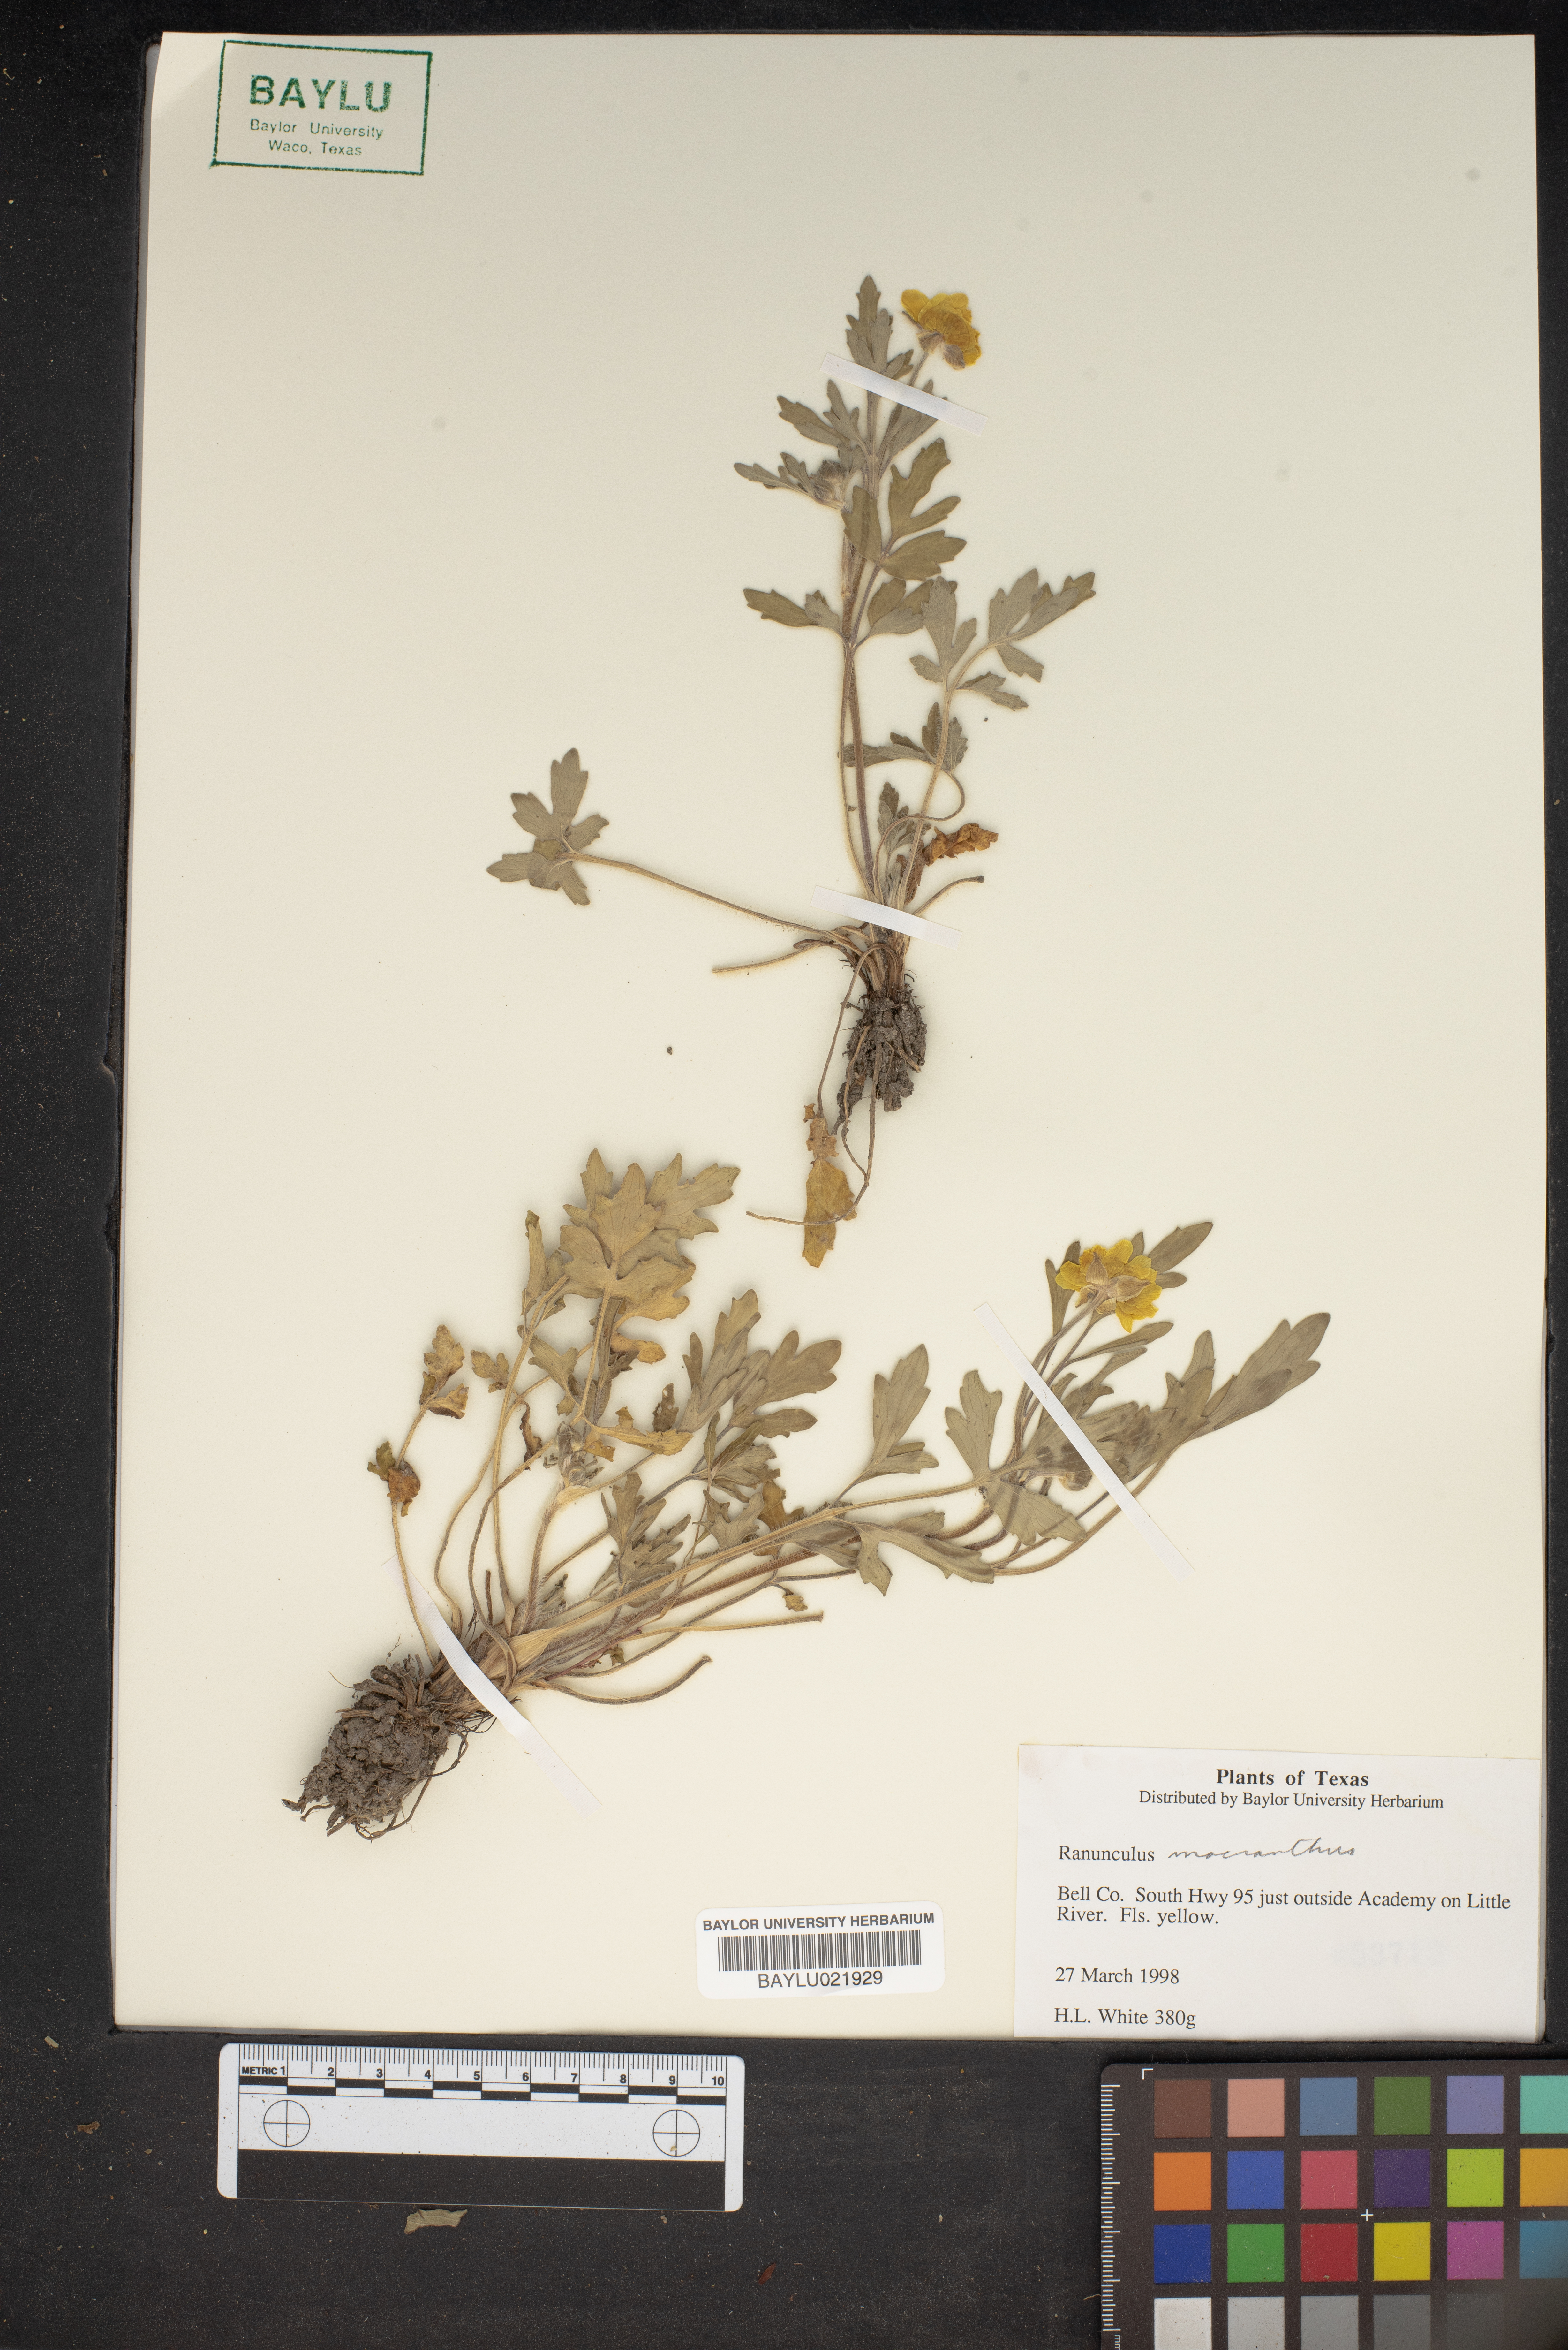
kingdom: Plantae
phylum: Tracheophyta
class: Magnoliopsida
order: Ranunculales
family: Ranunculaceae
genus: Ranunculus
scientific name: Ranunculus macranthus
